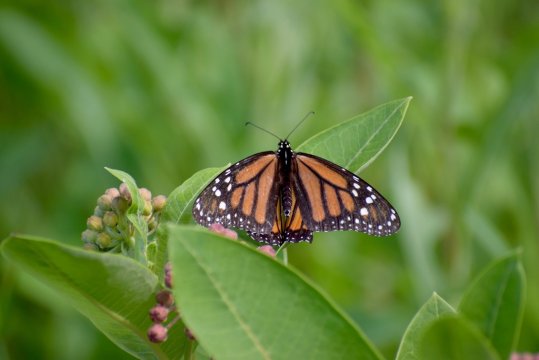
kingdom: Animalia
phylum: Arthropoda
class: Insecta
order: Lepidoptera
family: Nymphalidae
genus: Danaus
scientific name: Danaus plexippus
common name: Monarch
